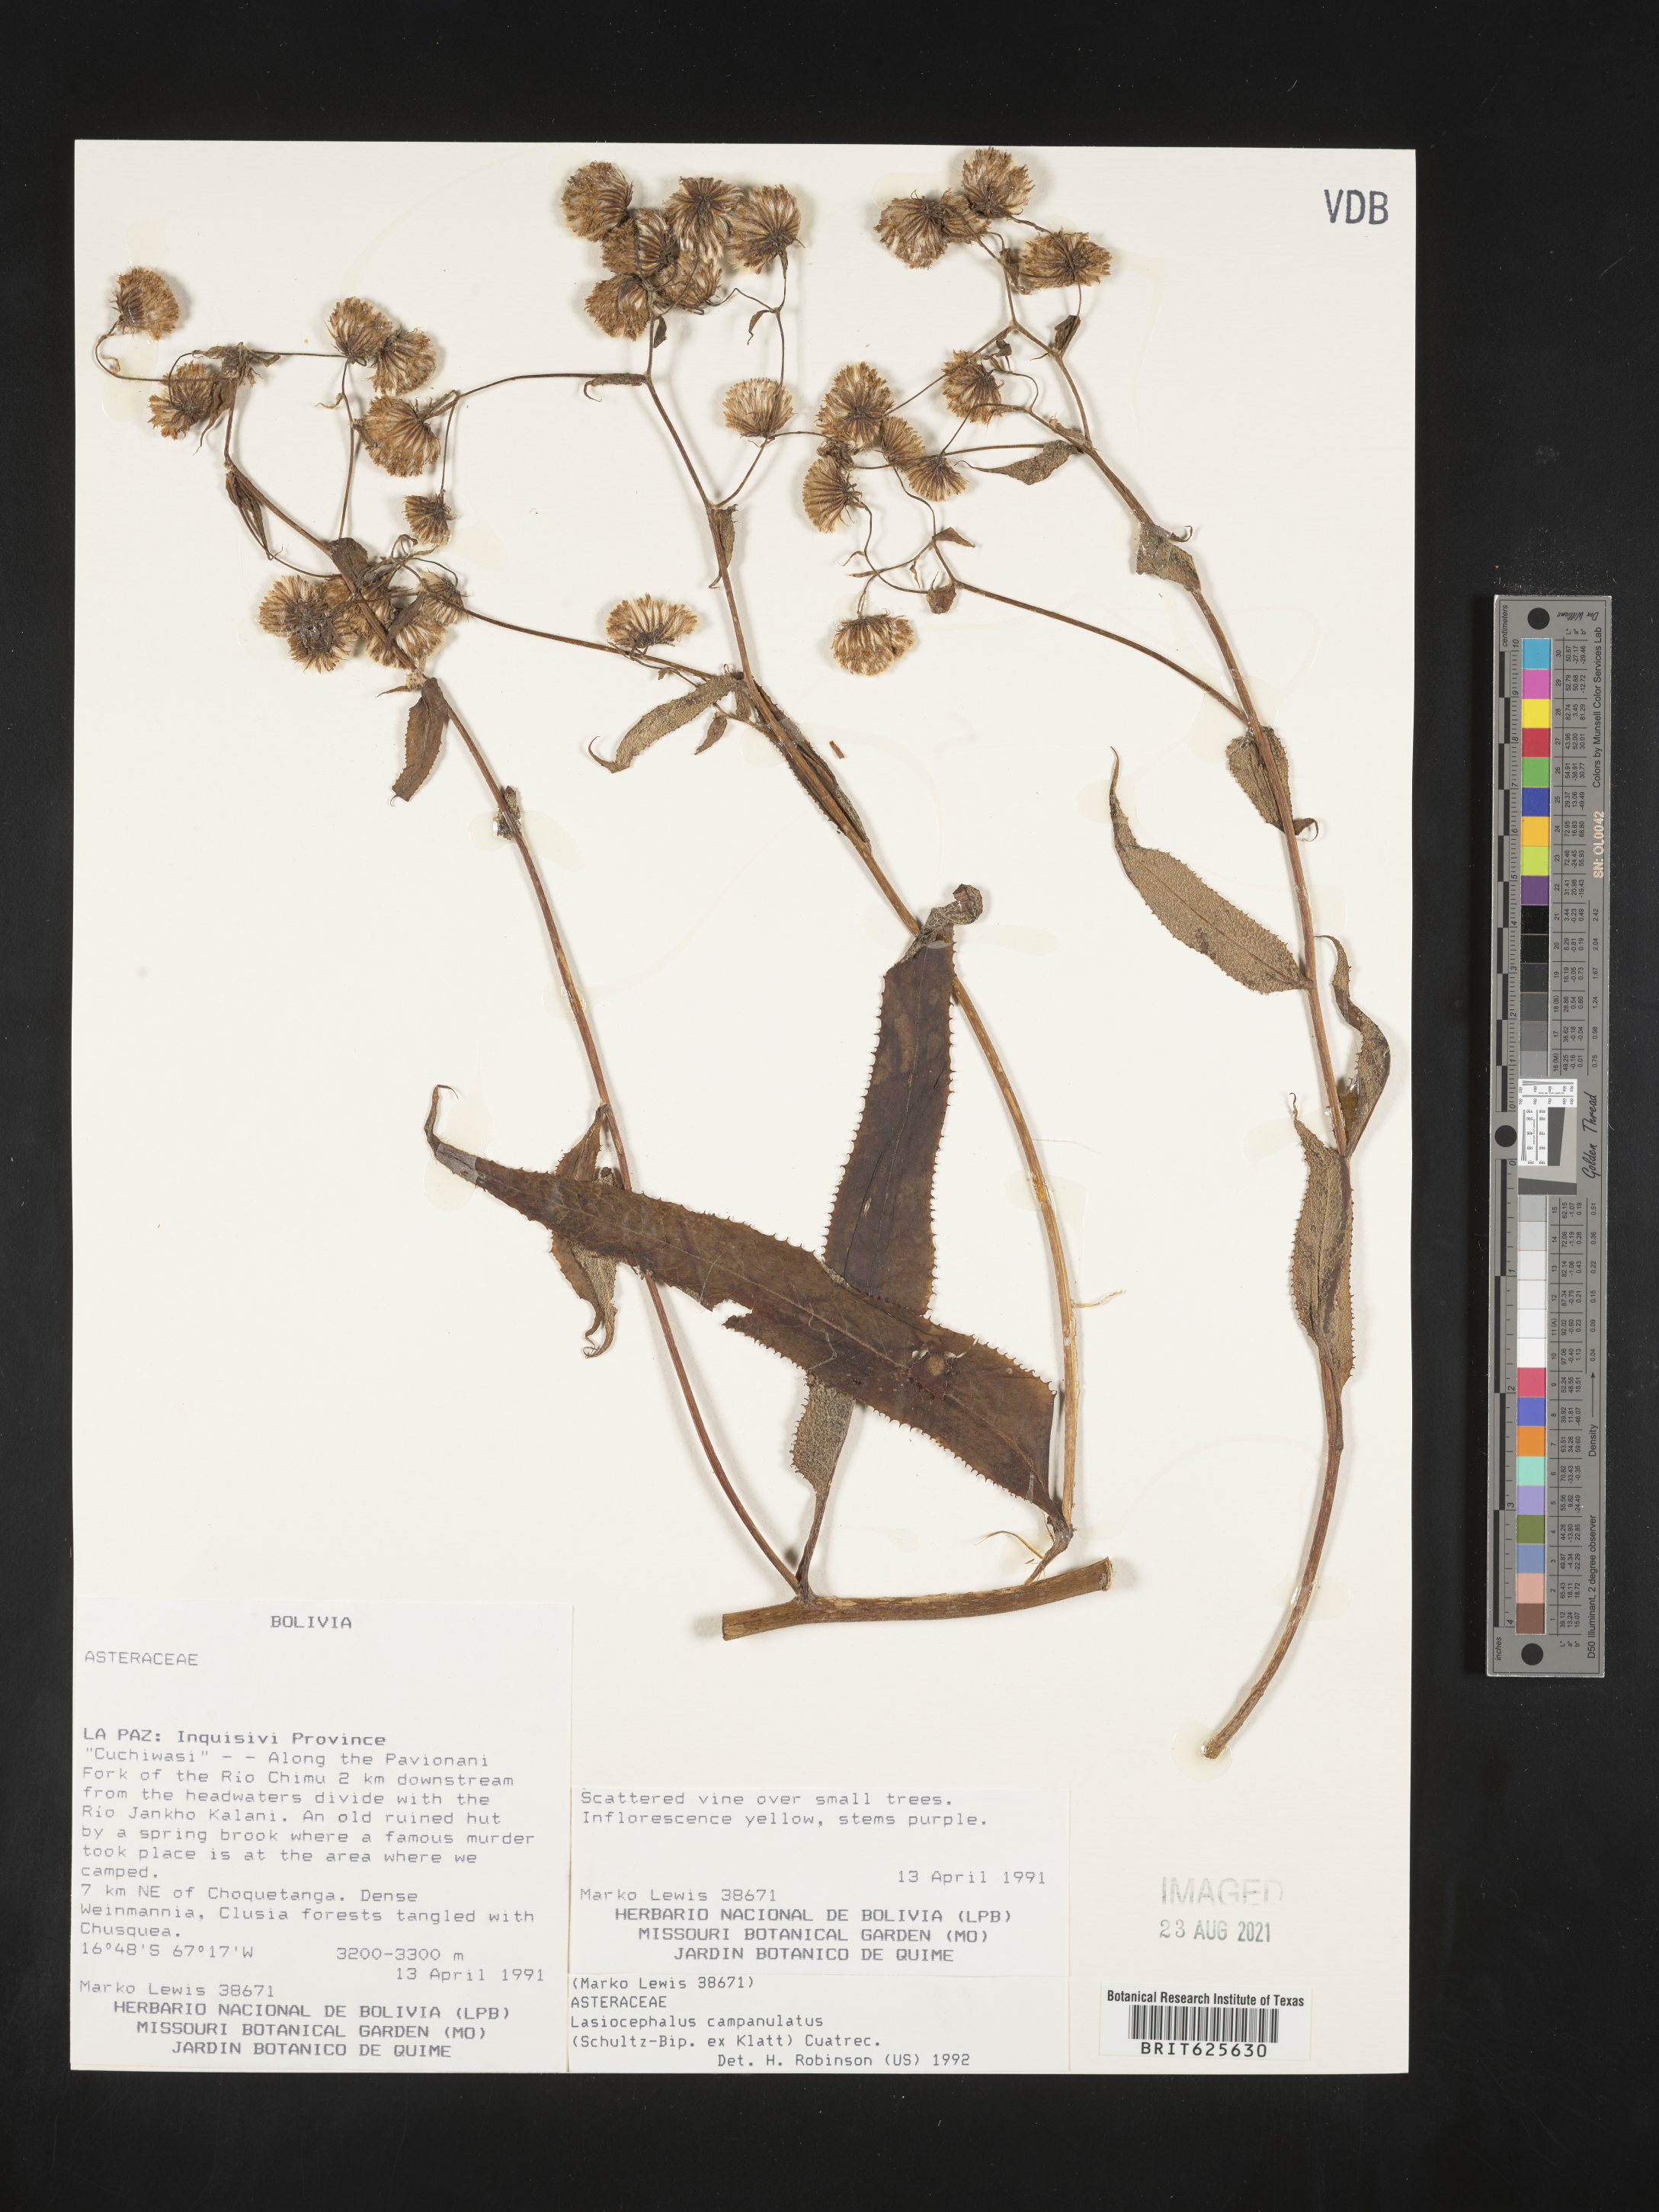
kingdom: Plantae
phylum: Tracheophyta
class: Magnoliopsida
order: Asterales
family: Asteraceae
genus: Aetheolaena
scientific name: Aetheolaena betonicifolia
